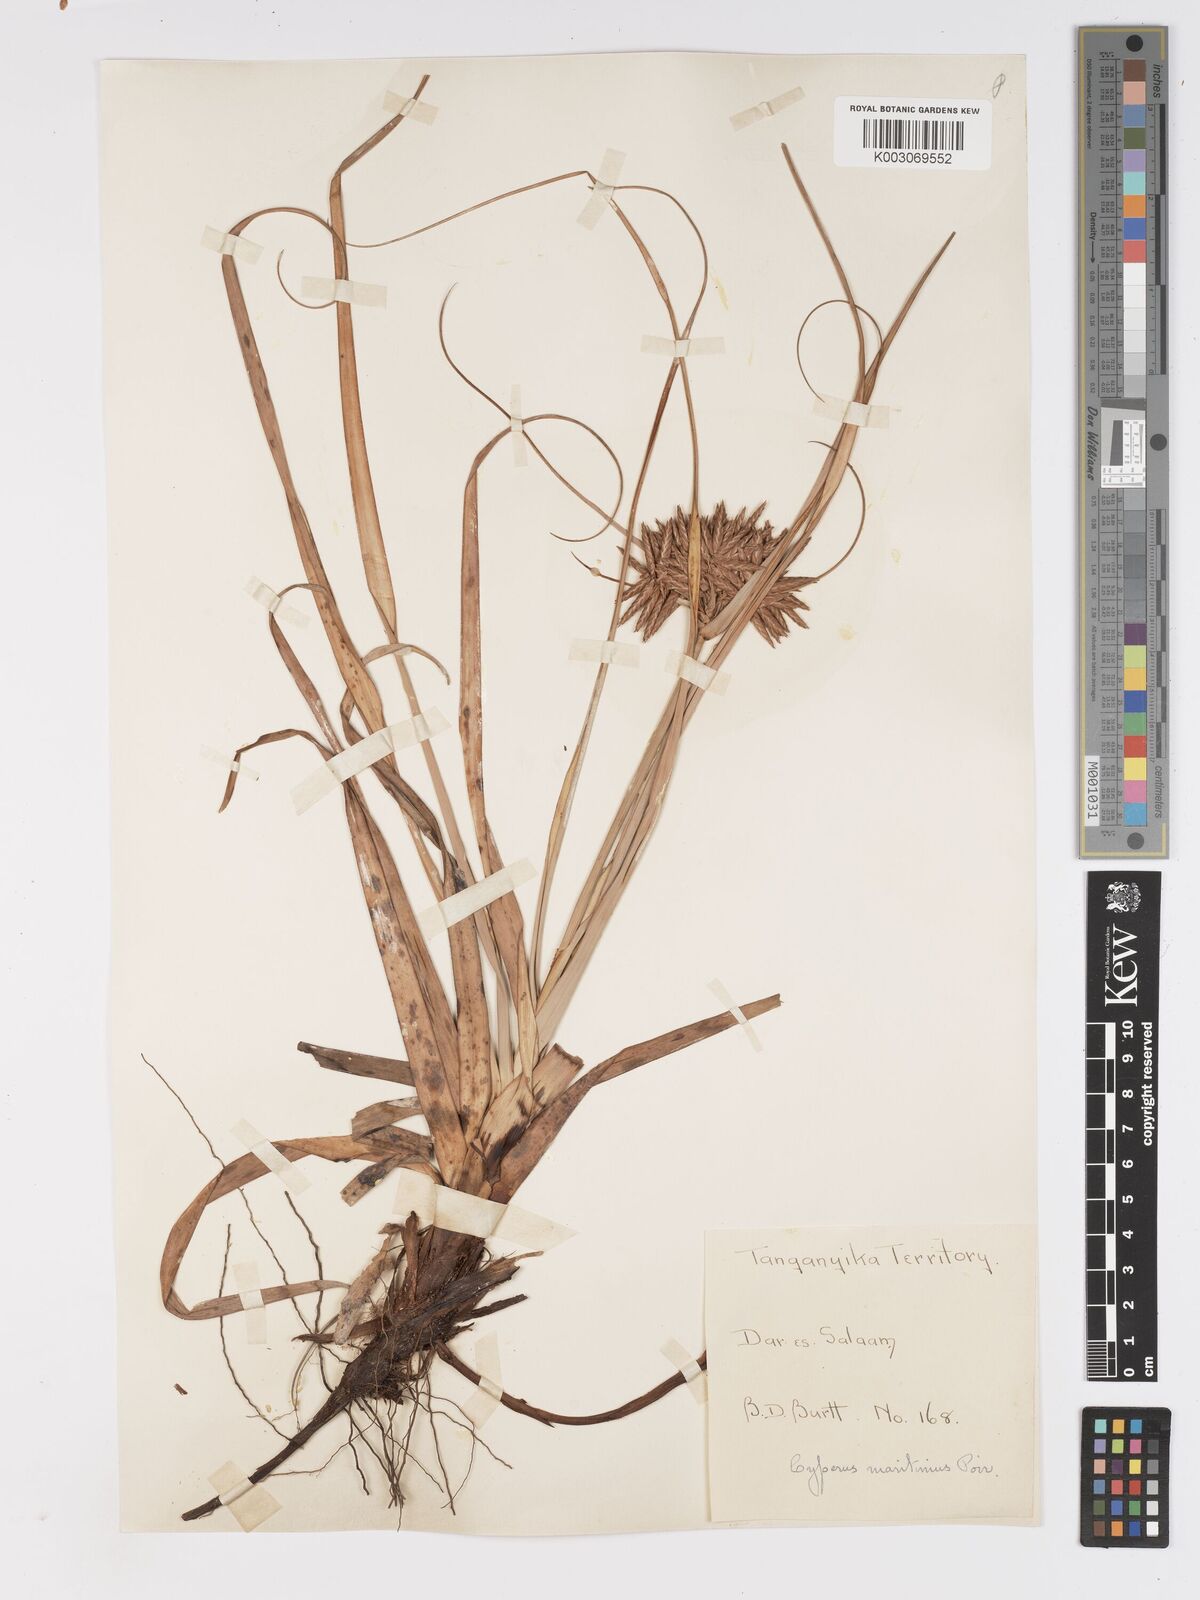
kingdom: Plantae
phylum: Tracheophyta
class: Liliopsida
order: Poales
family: Cyperaceae
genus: Cyperus
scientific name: Cyperus crassipes
